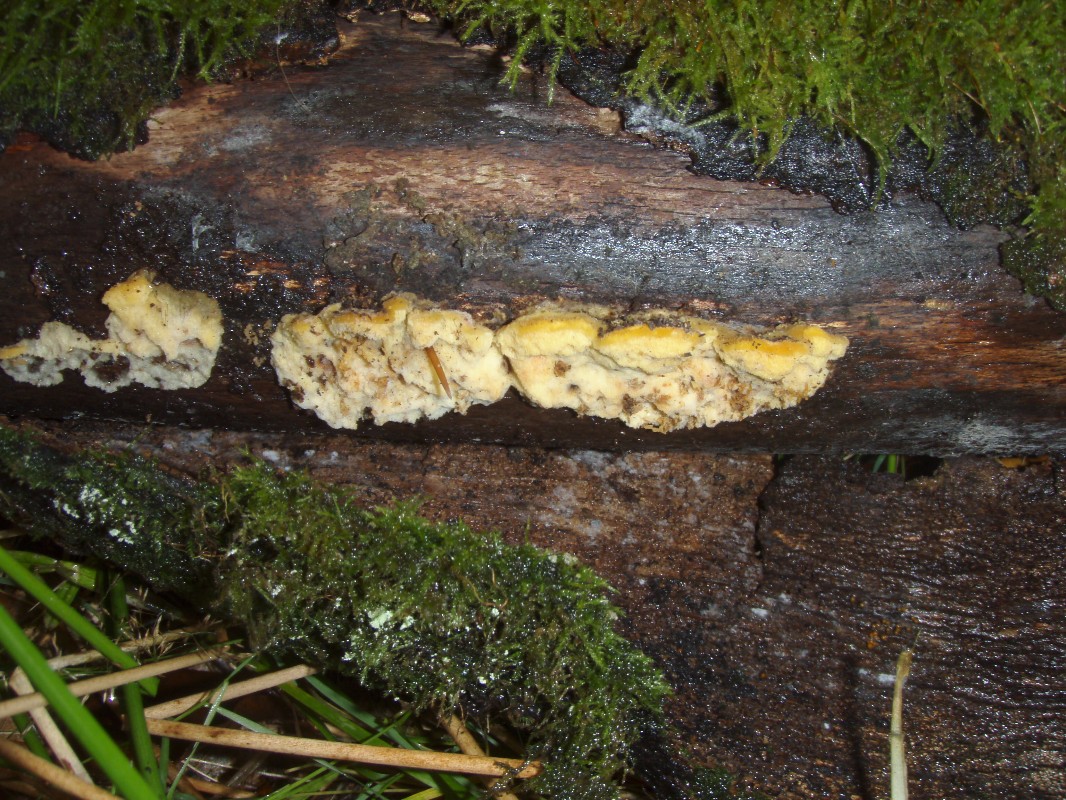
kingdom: Fungi
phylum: Basidiomycota
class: Agaricomycetes
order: Polyporales
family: Steccherinaceae
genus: Antrodiella
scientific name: Antrodiella serpula
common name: gulrandet elastikporesvamp
